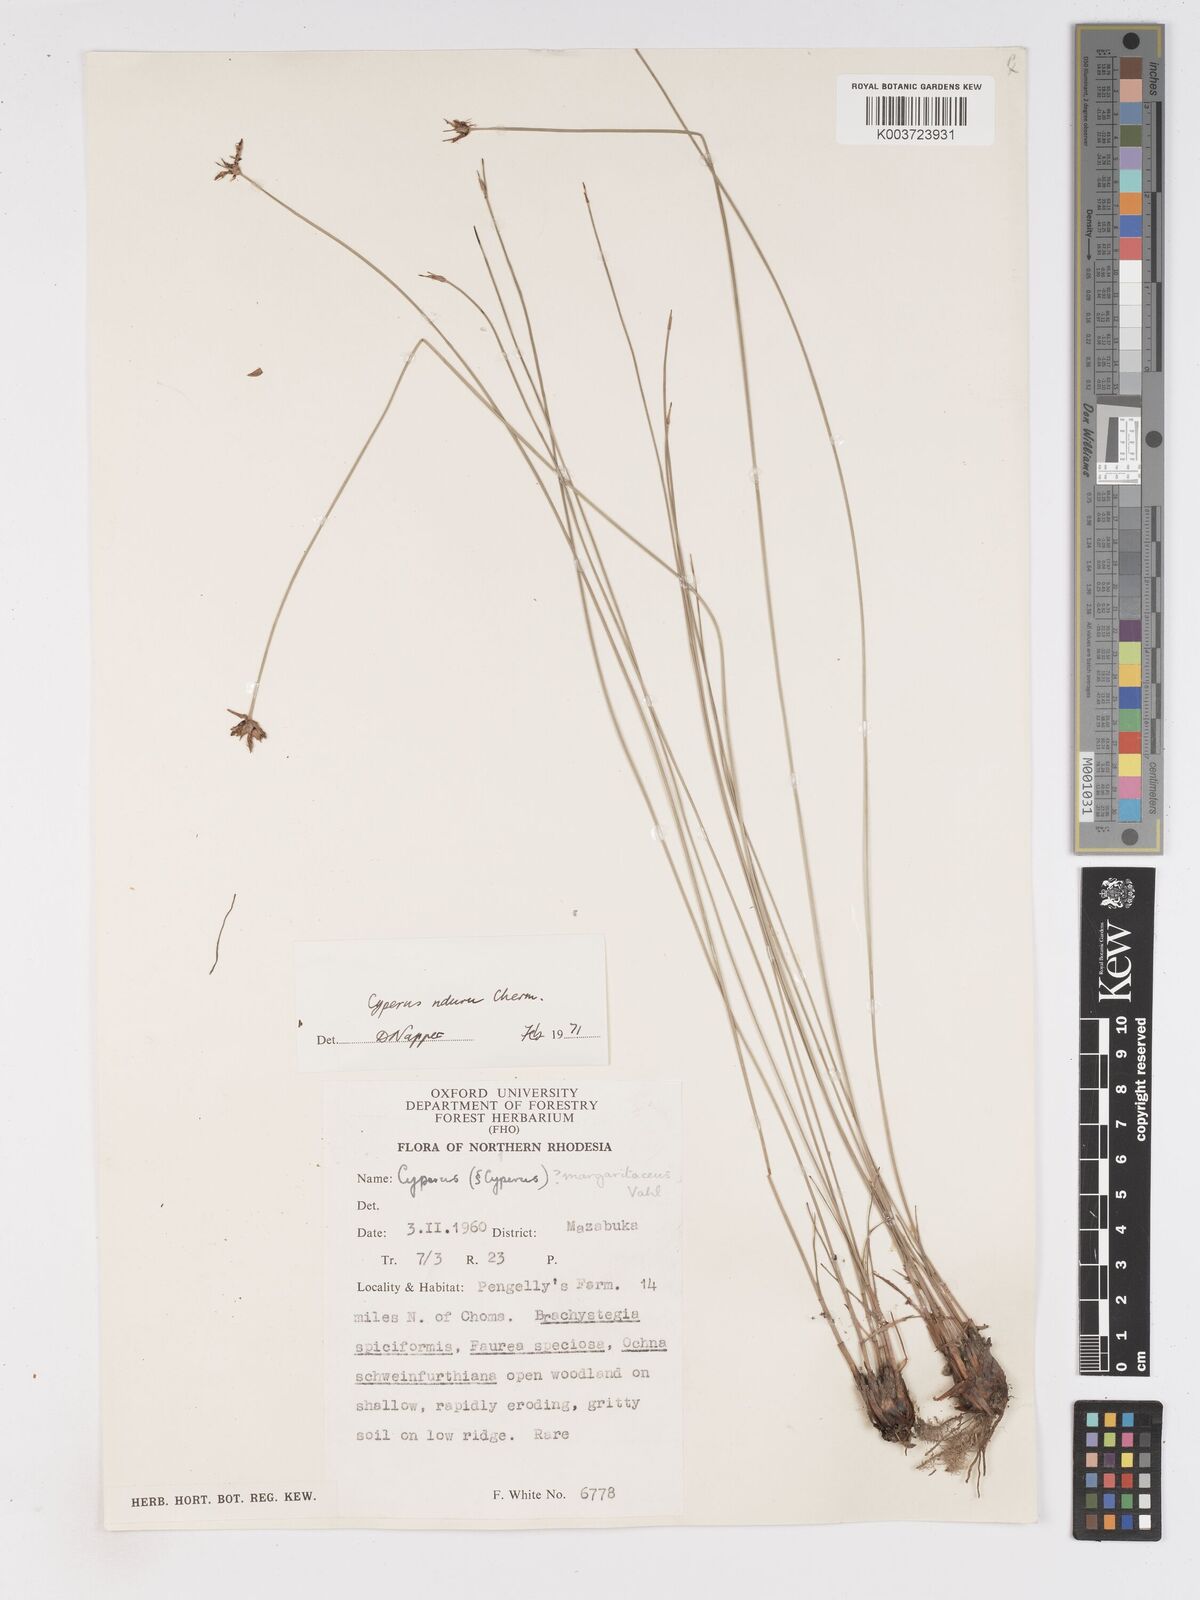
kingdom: Plantae
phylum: Tracheophyta
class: Liliopsida
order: Poales
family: Cyperaceae
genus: Cyperus
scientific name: Cyperus nduru
